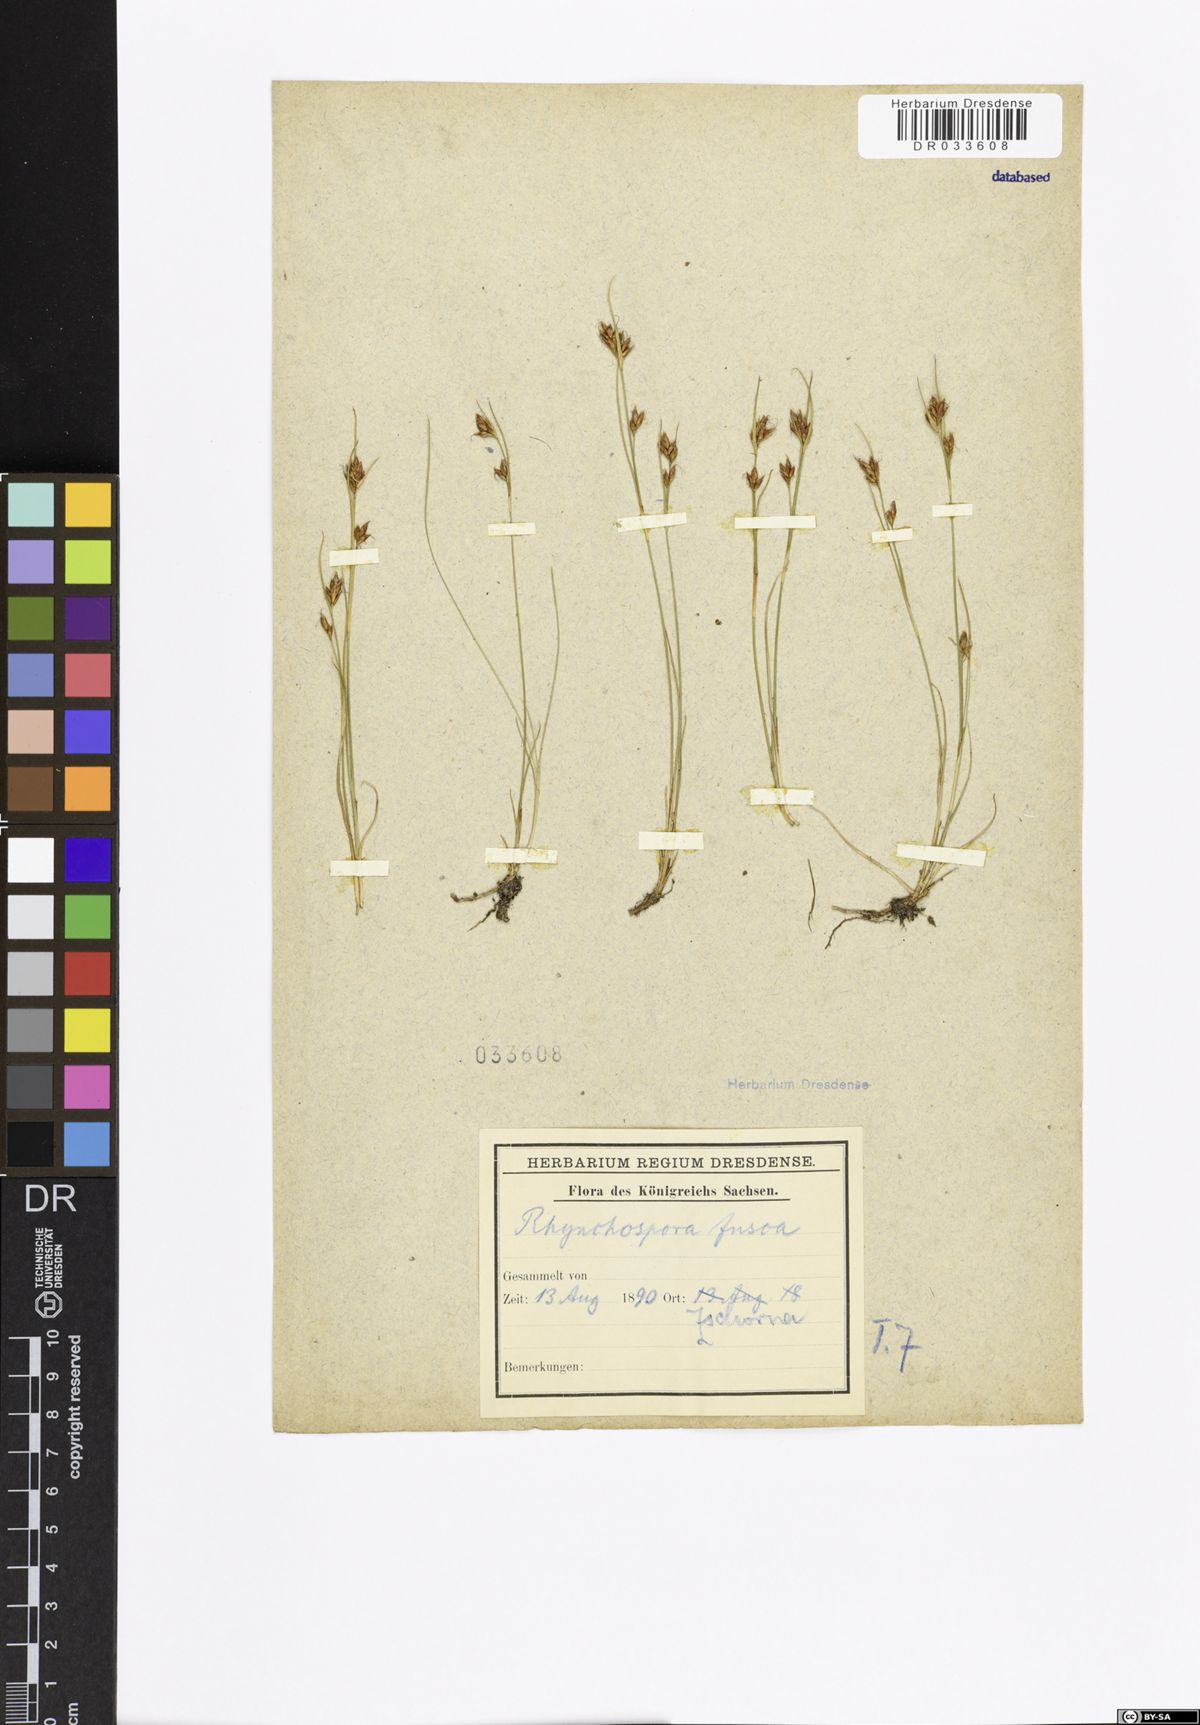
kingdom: Plantae
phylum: Tracheophyta
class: Liliopsida
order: Poales
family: Cyperaceae
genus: Rhynchospora
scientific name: Rhynchospora fusca
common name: Brown beak-sedge
